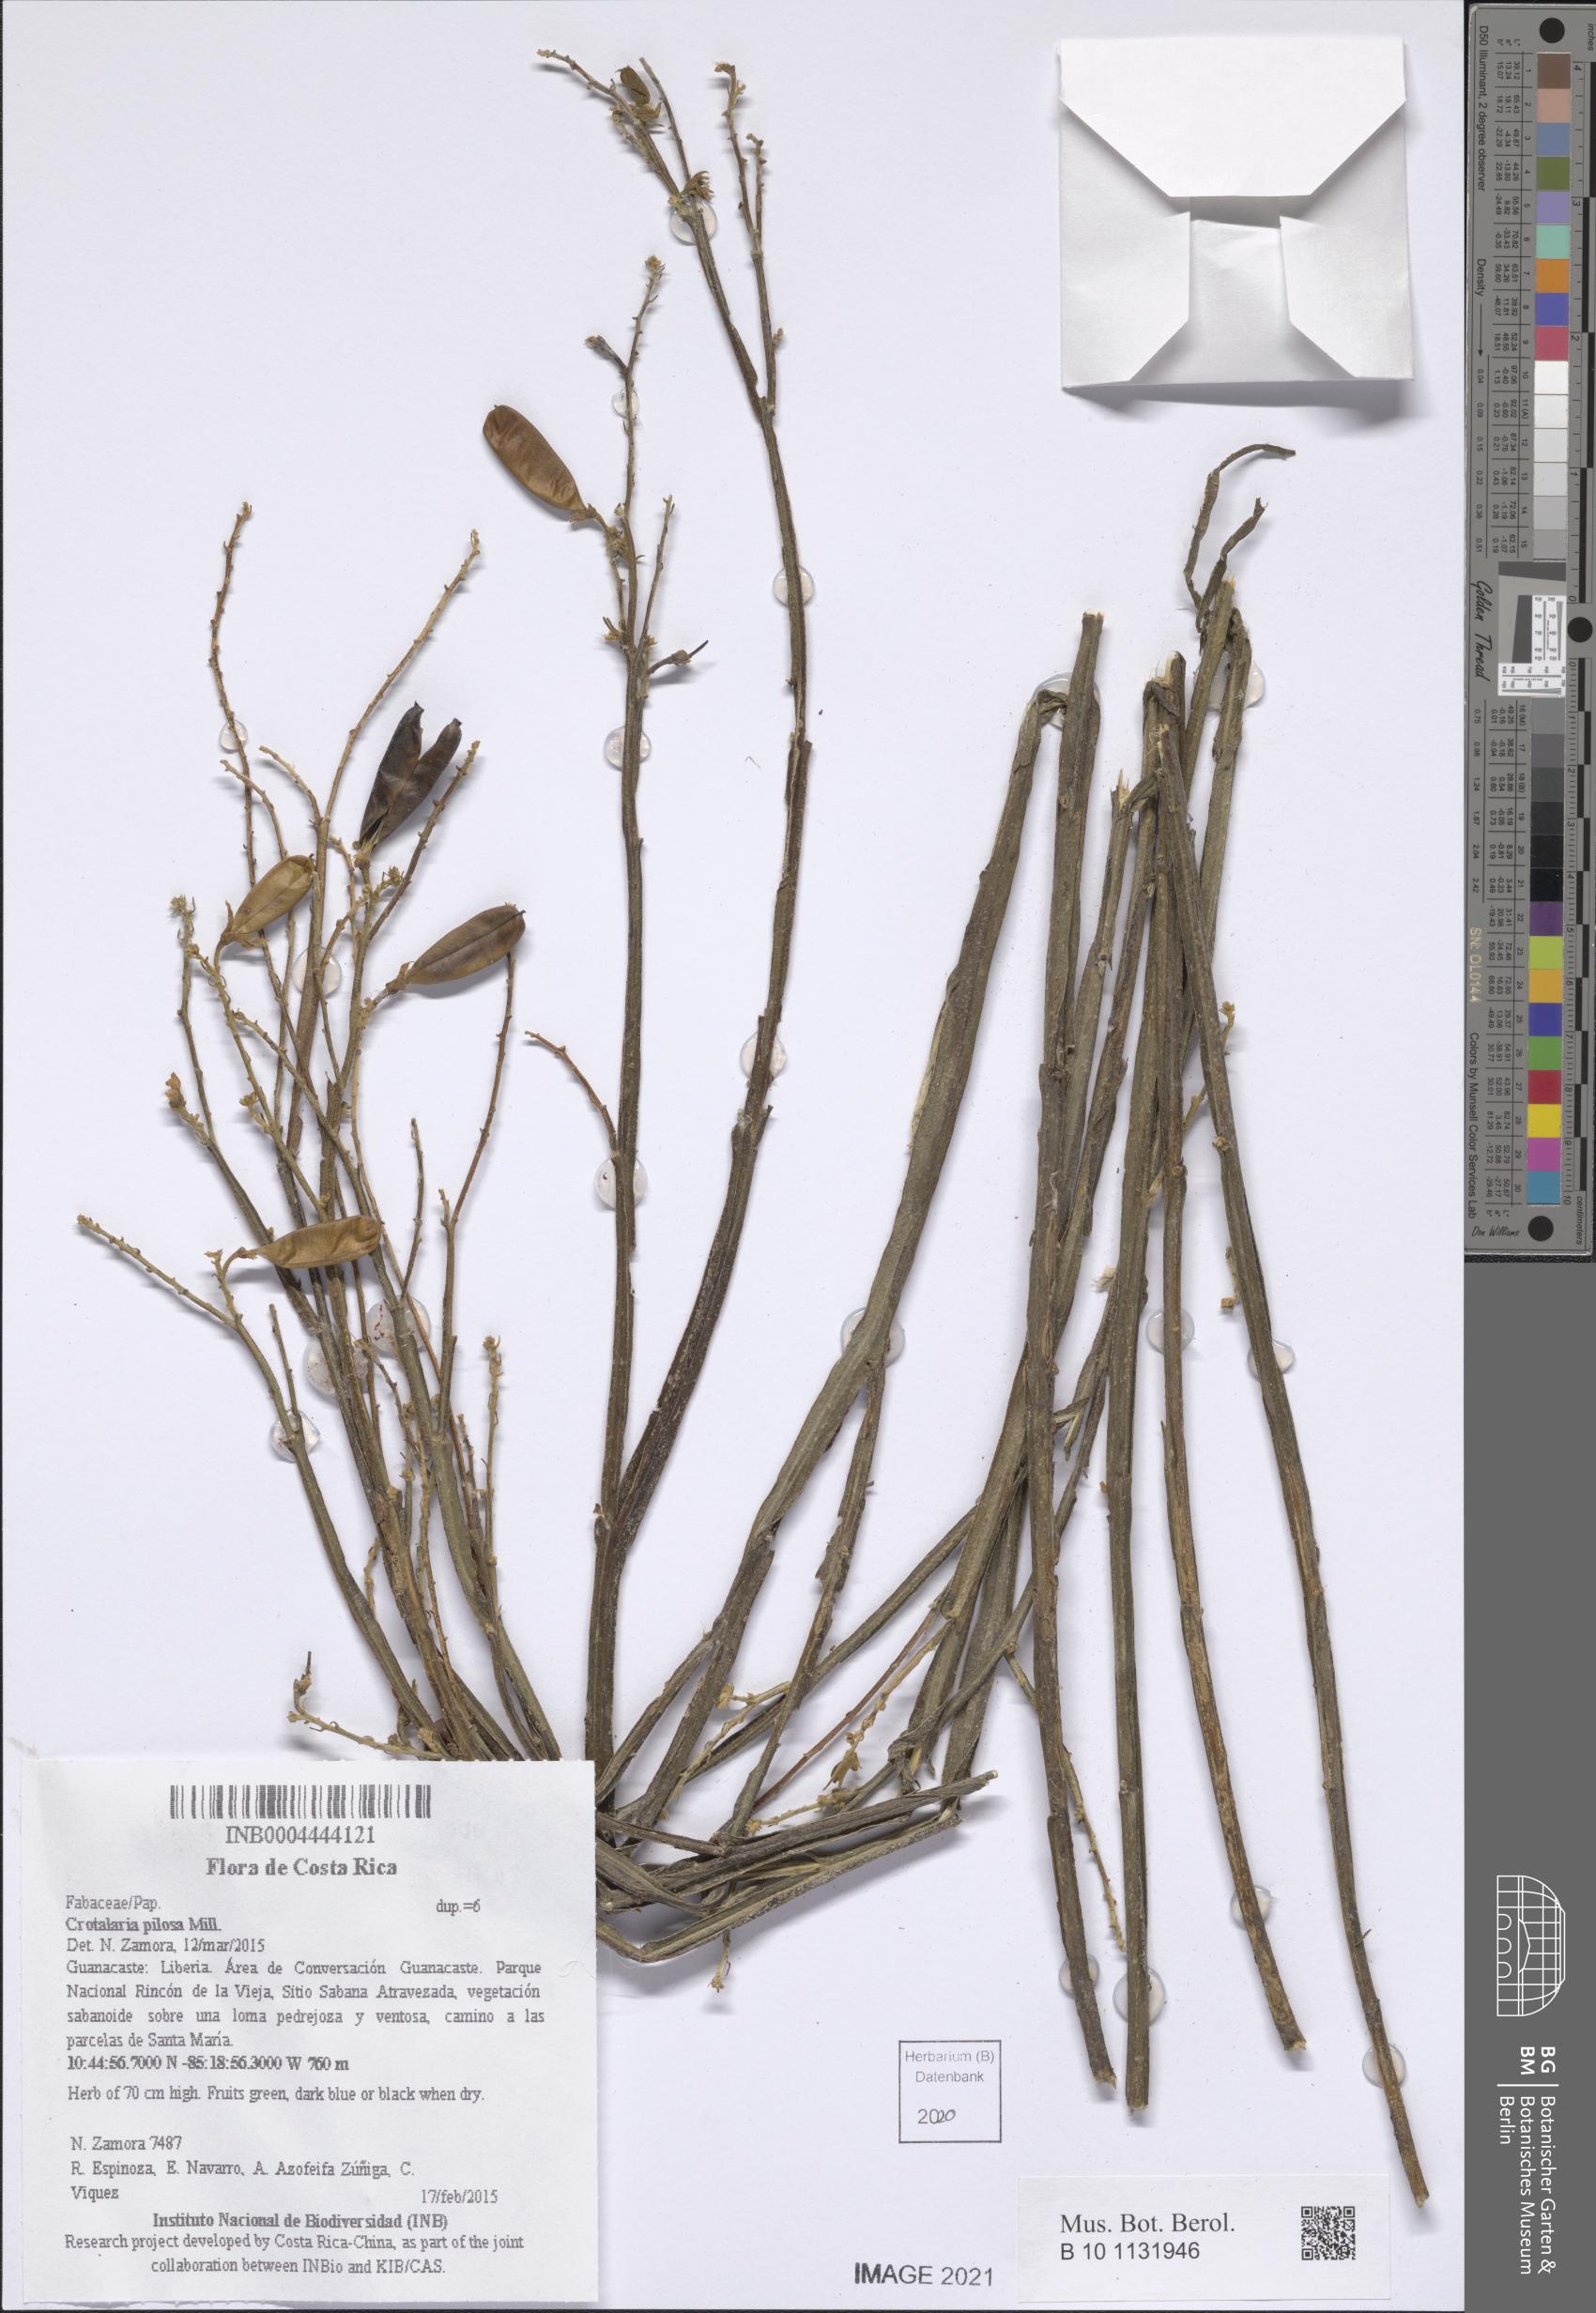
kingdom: Plantae
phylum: Tracheophyta
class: Magnoliopsida
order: Fabales
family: Fabaceae
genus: Crotalaria
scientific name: Crotalaria pilosa
